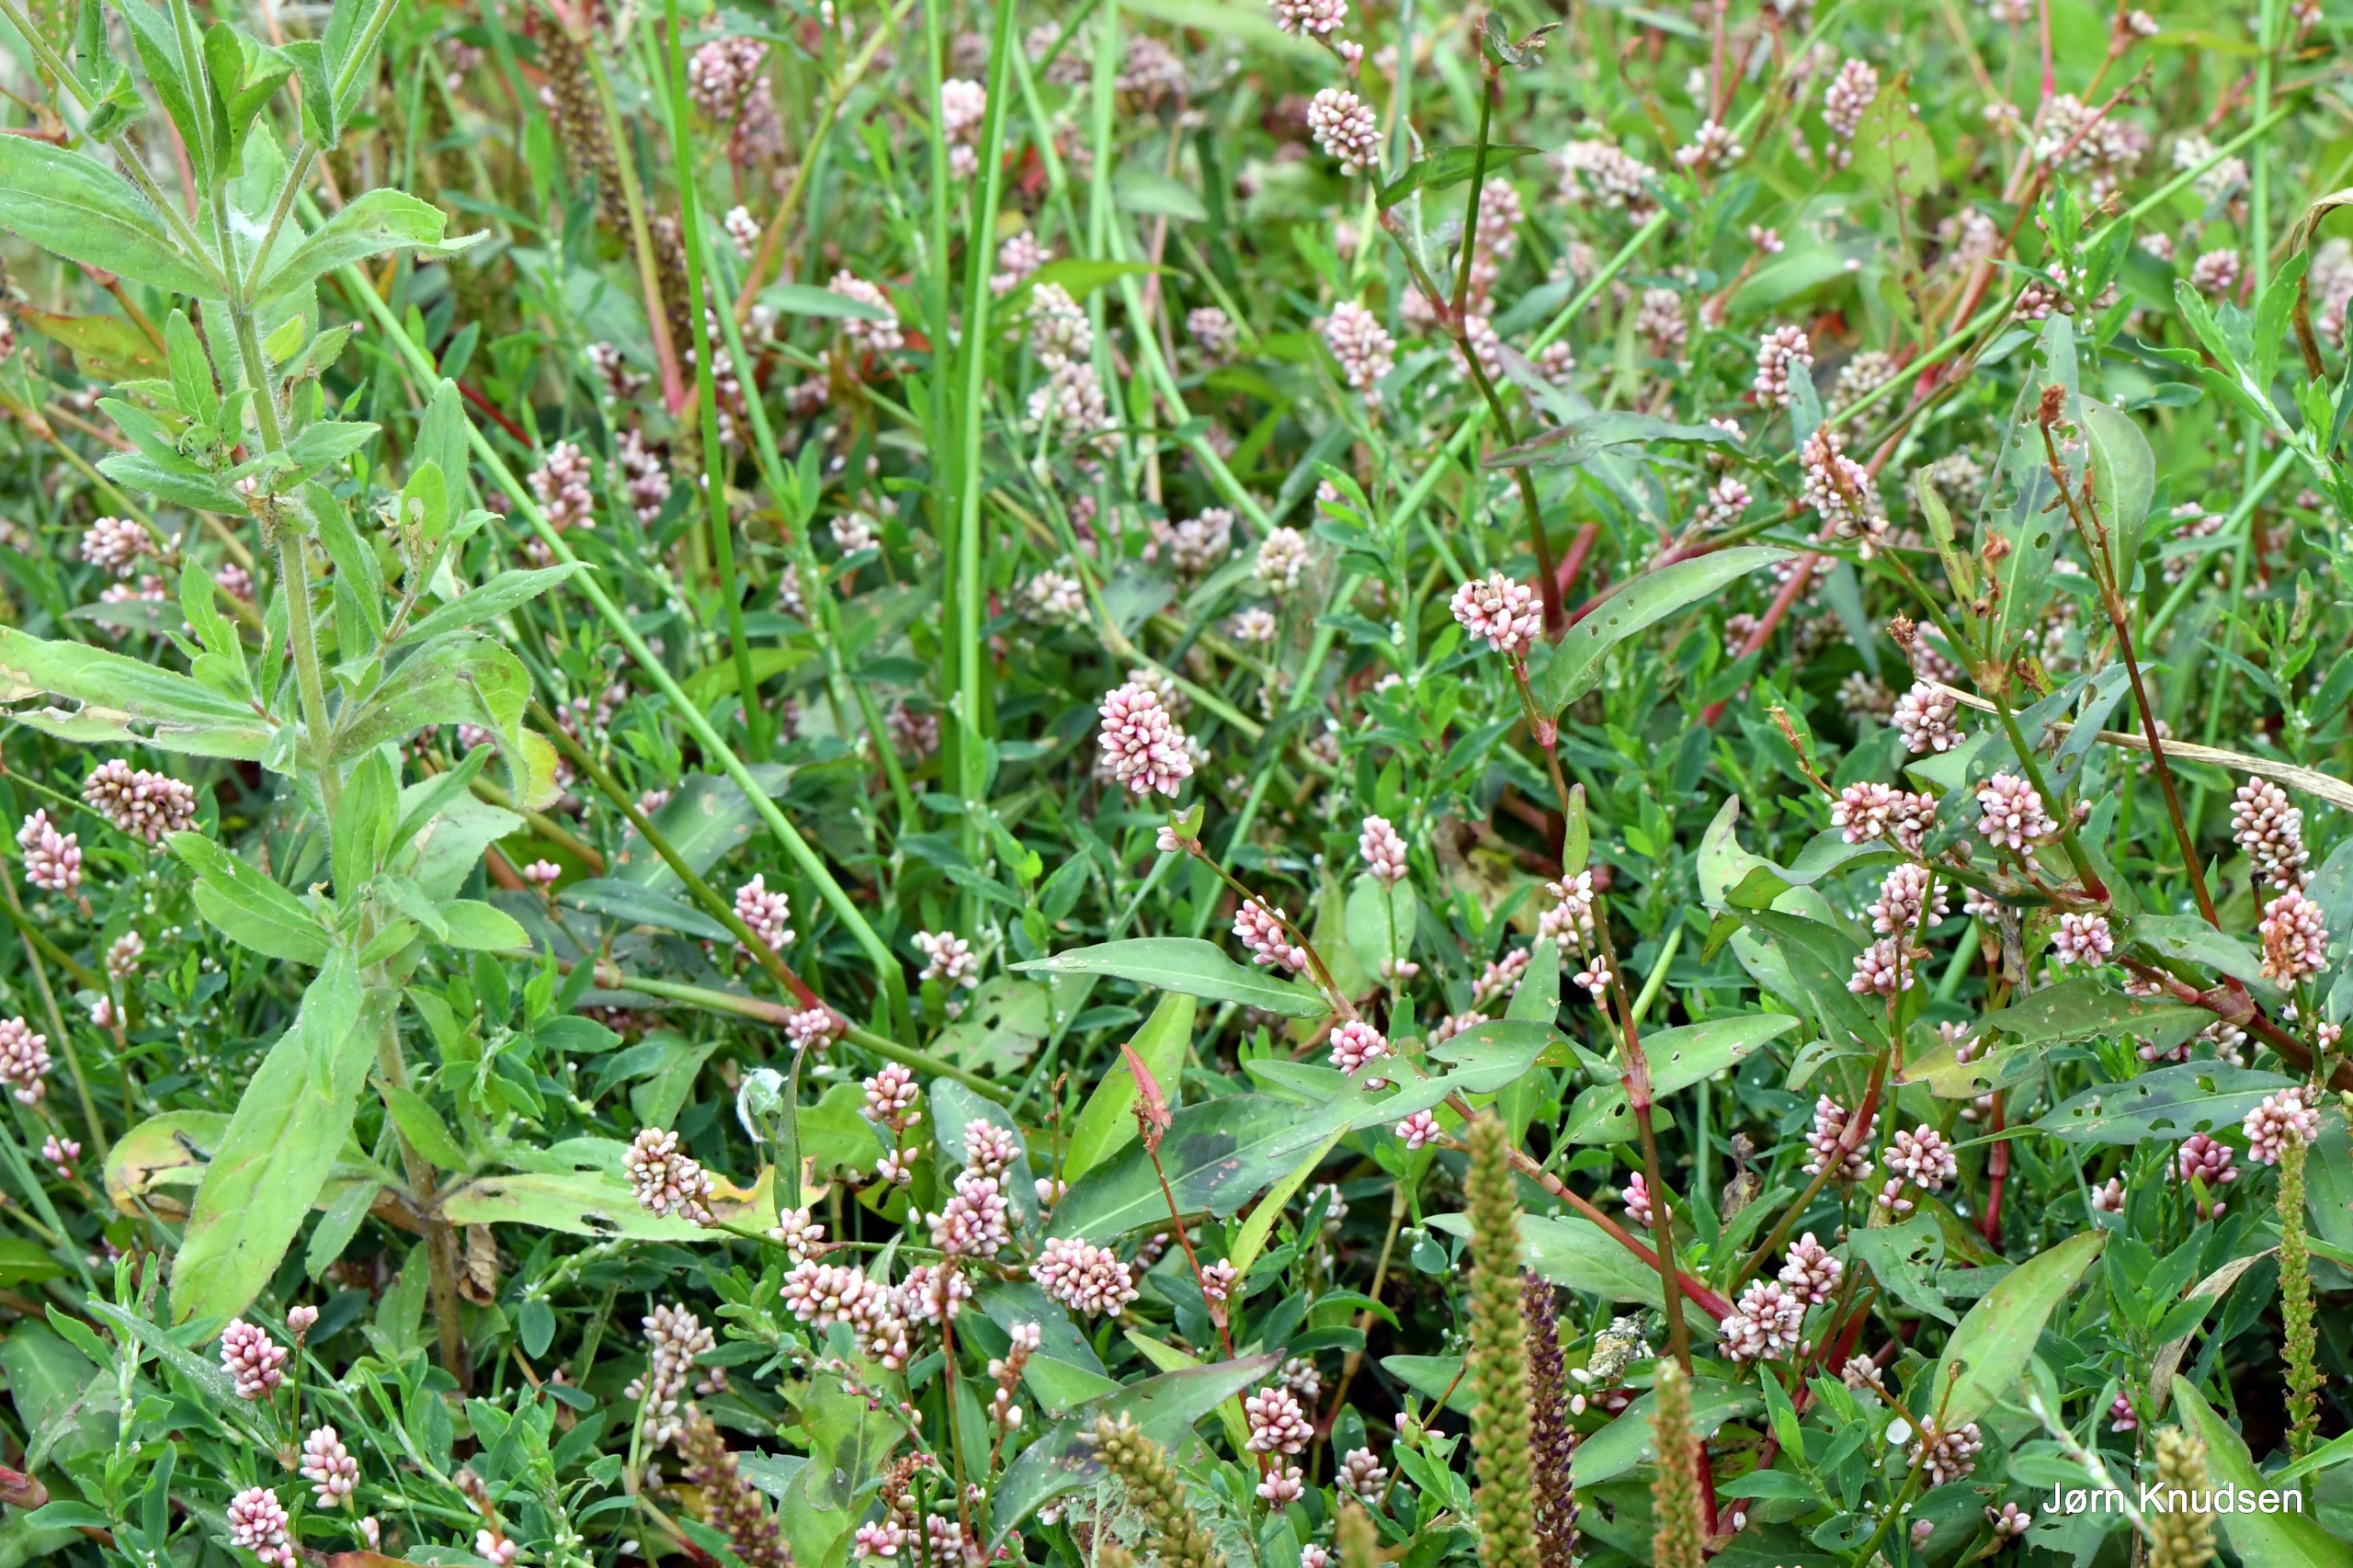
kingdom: Plantae
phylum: Tracheophyta
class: Magnoliopsida
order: Caryophyllales
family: Polygonaceae
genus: Persicaria
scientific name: Persicaria maculosa
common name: Fersken-pileurt
